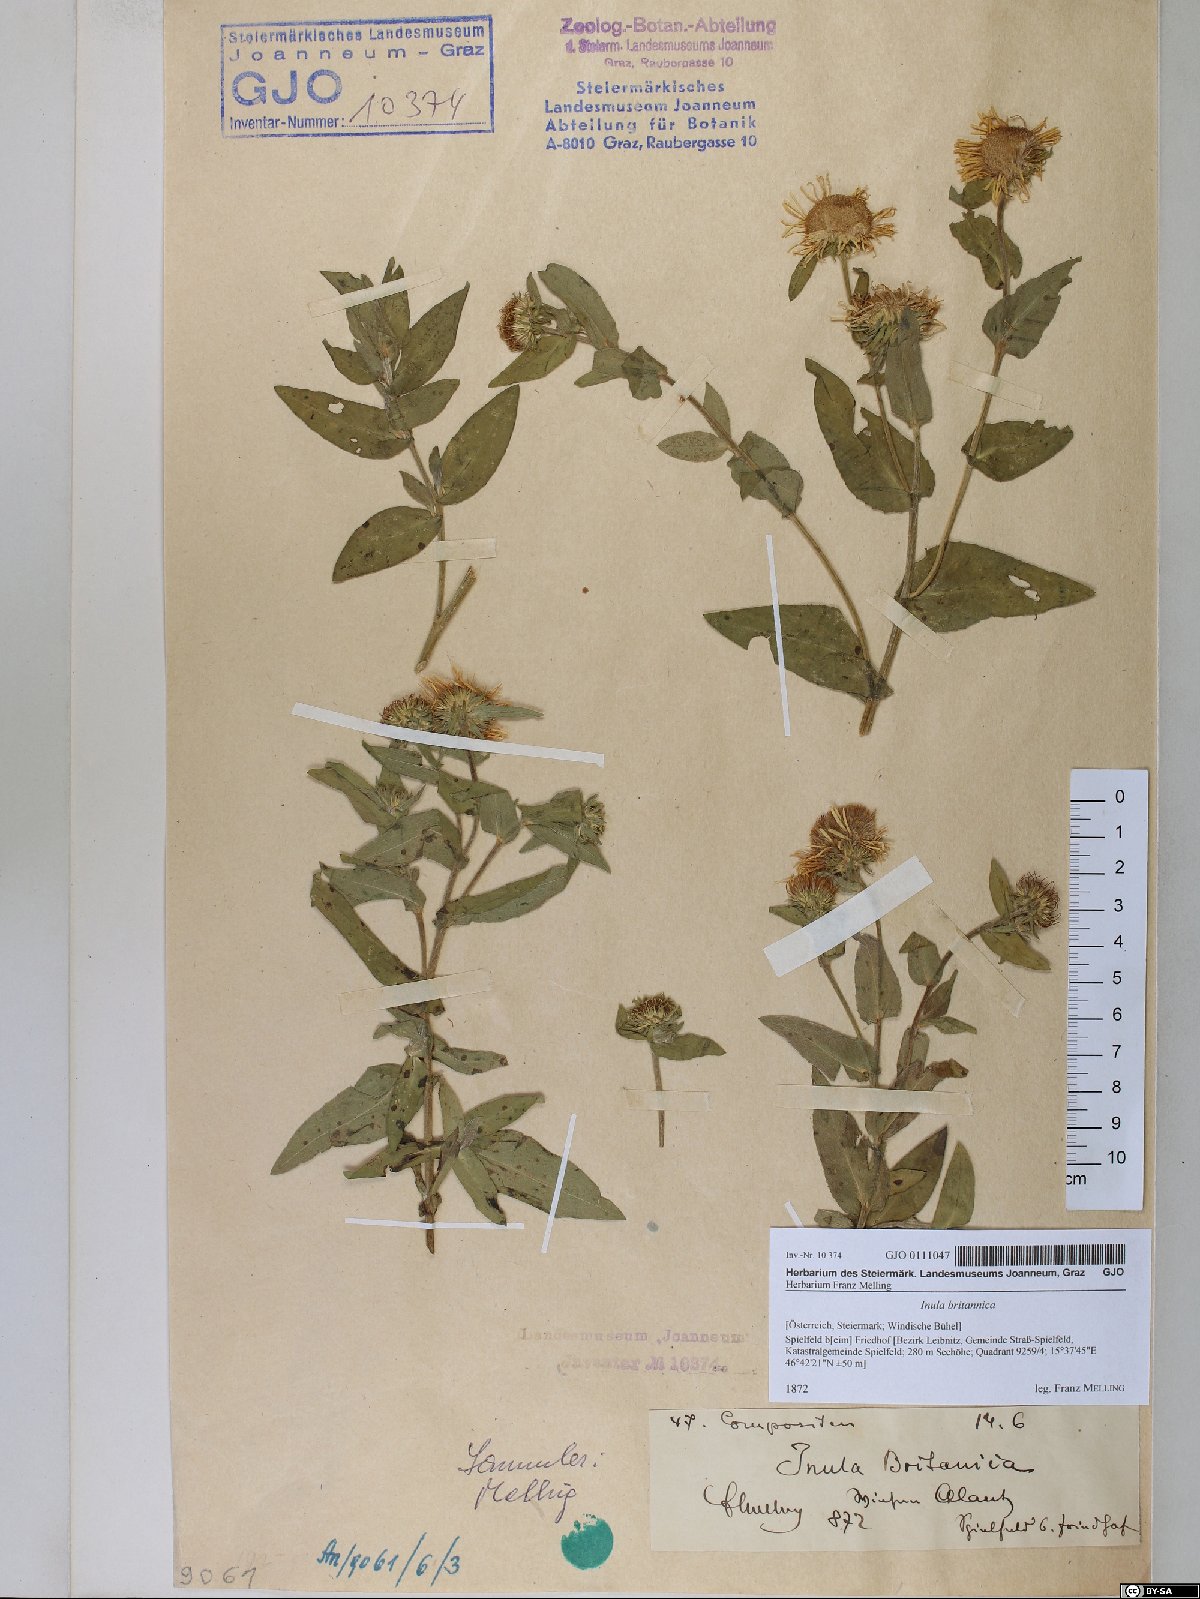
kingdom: Plantae
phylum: Tracheophyta
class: Magnoliopsida
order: Asterales
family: Asteraceae
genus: Pentanema
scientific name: Pentanema britannicum
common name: British elecampane
